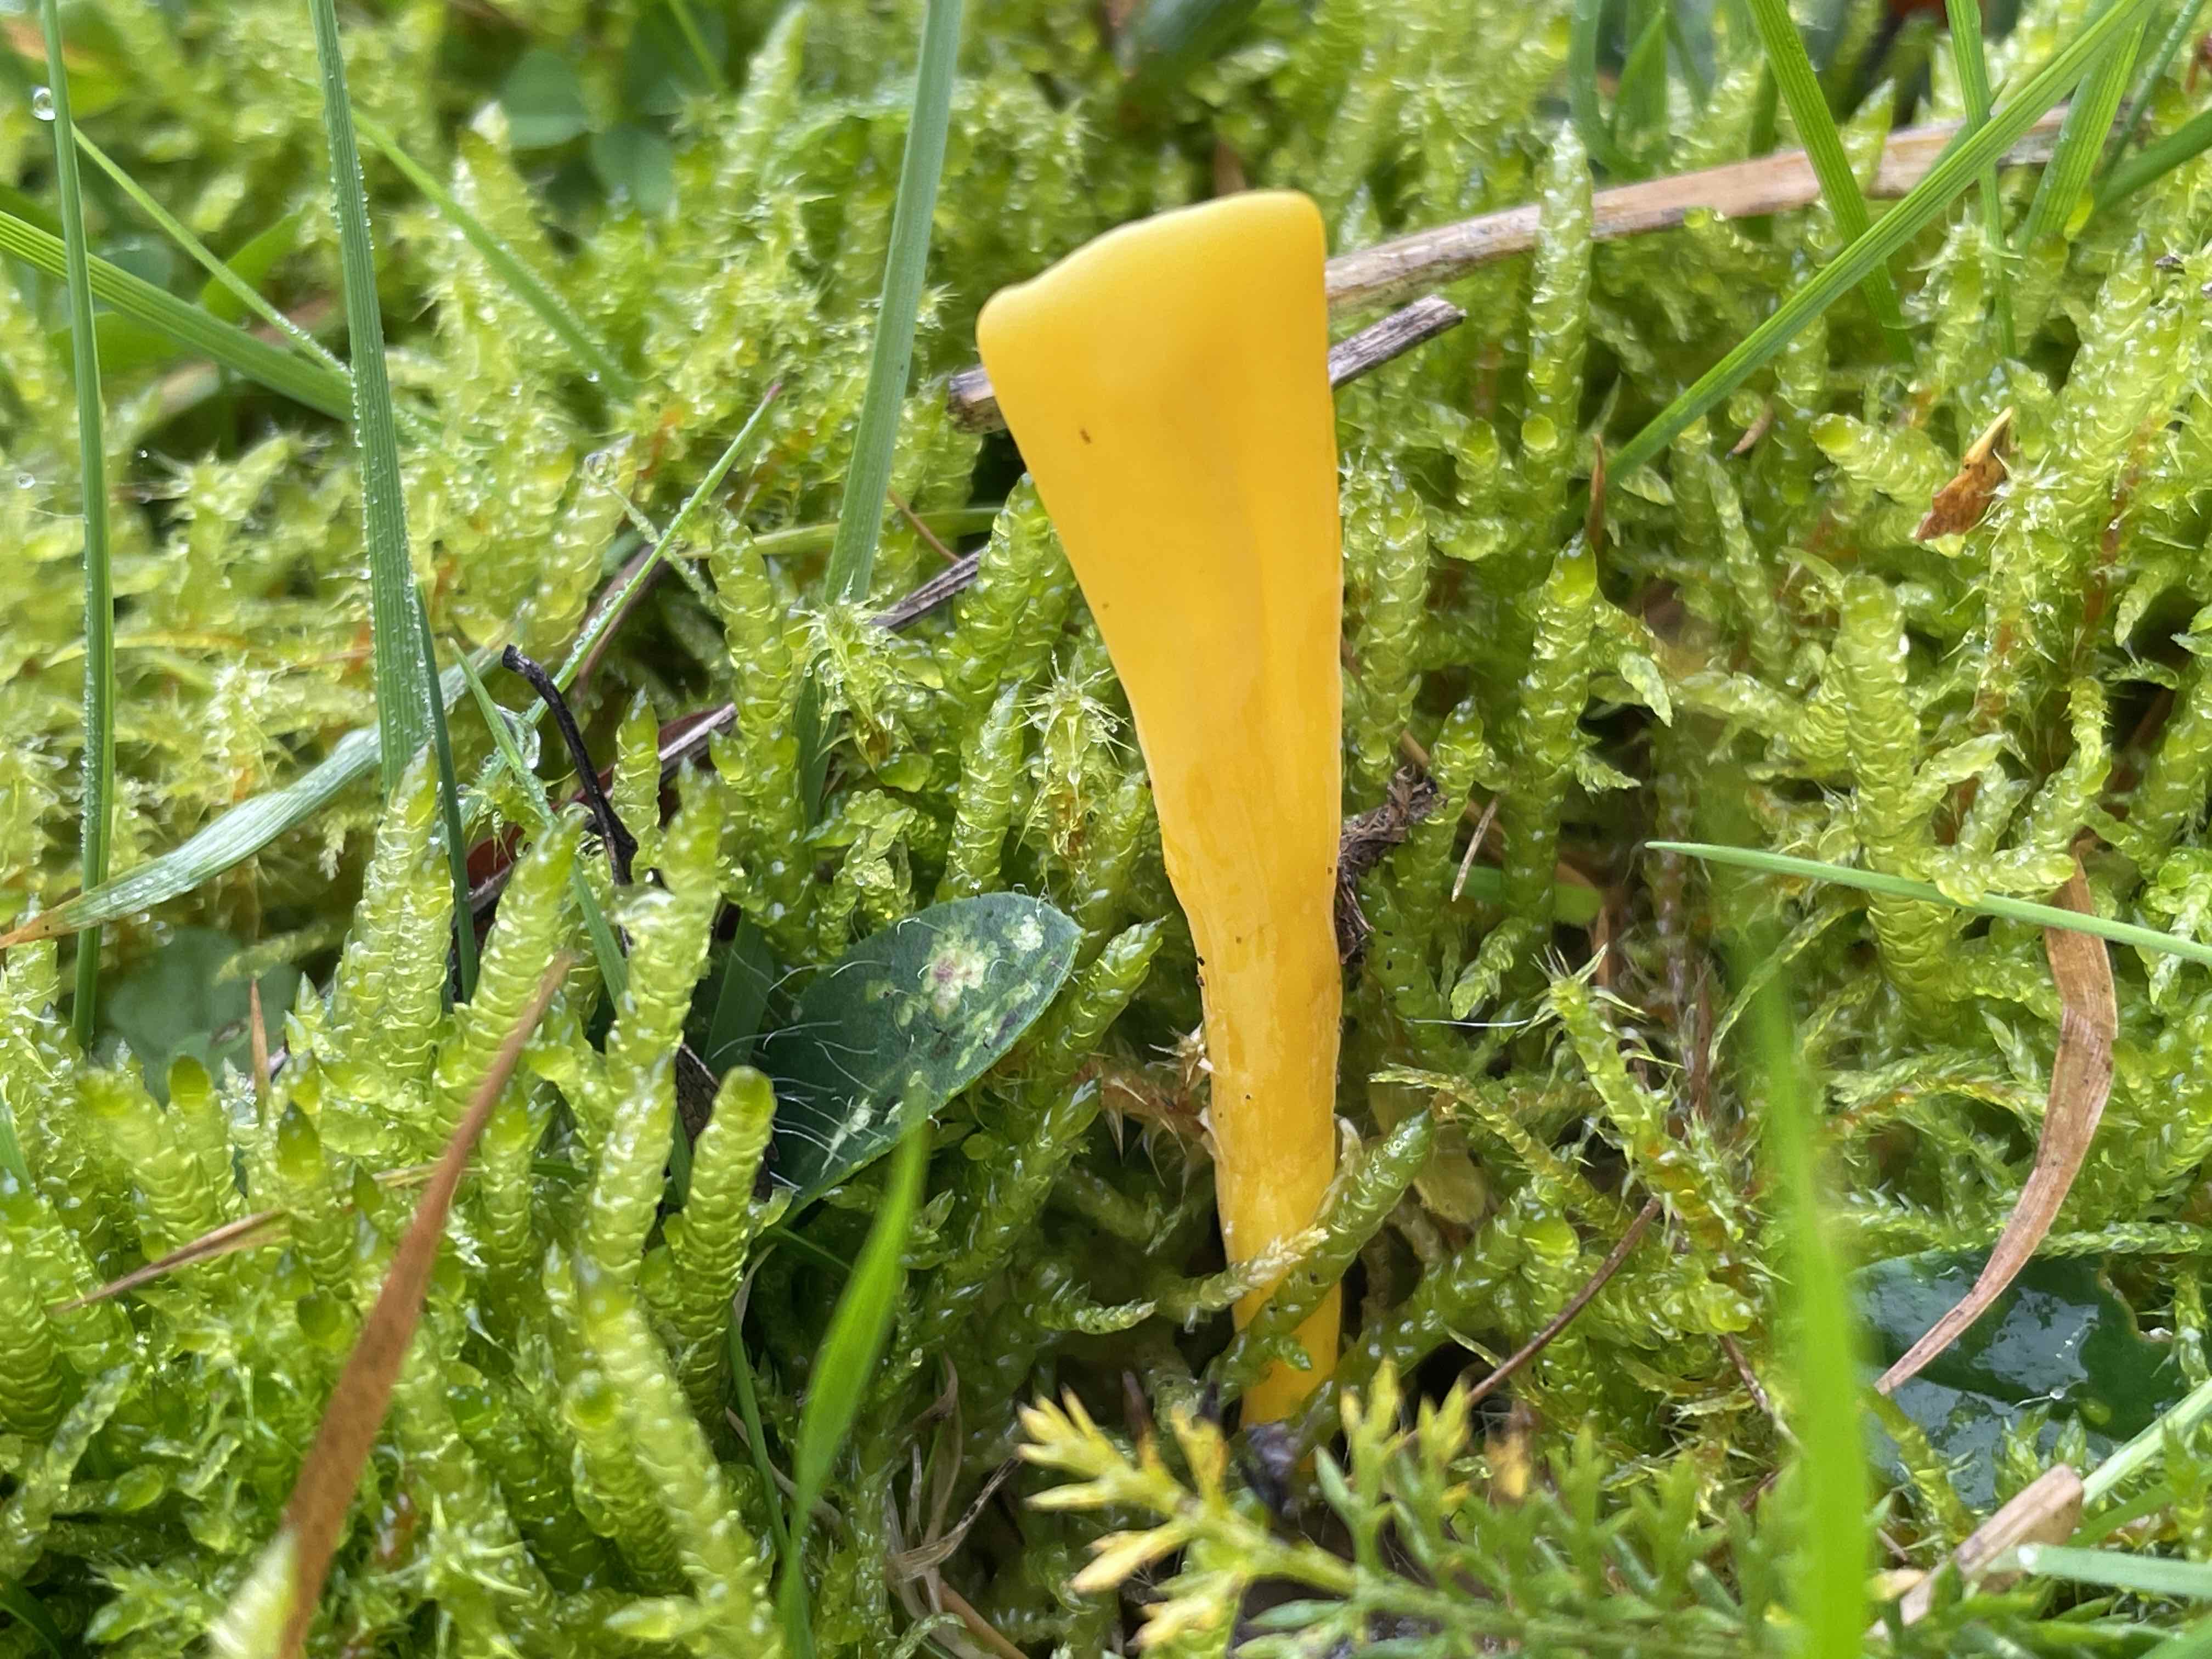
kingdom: Fungi
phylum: Basidiomycota
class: Agaricomycetes
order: Agaricales
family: Clavariaceae
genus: Clavulinopsis
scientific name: Clavulinopsis
